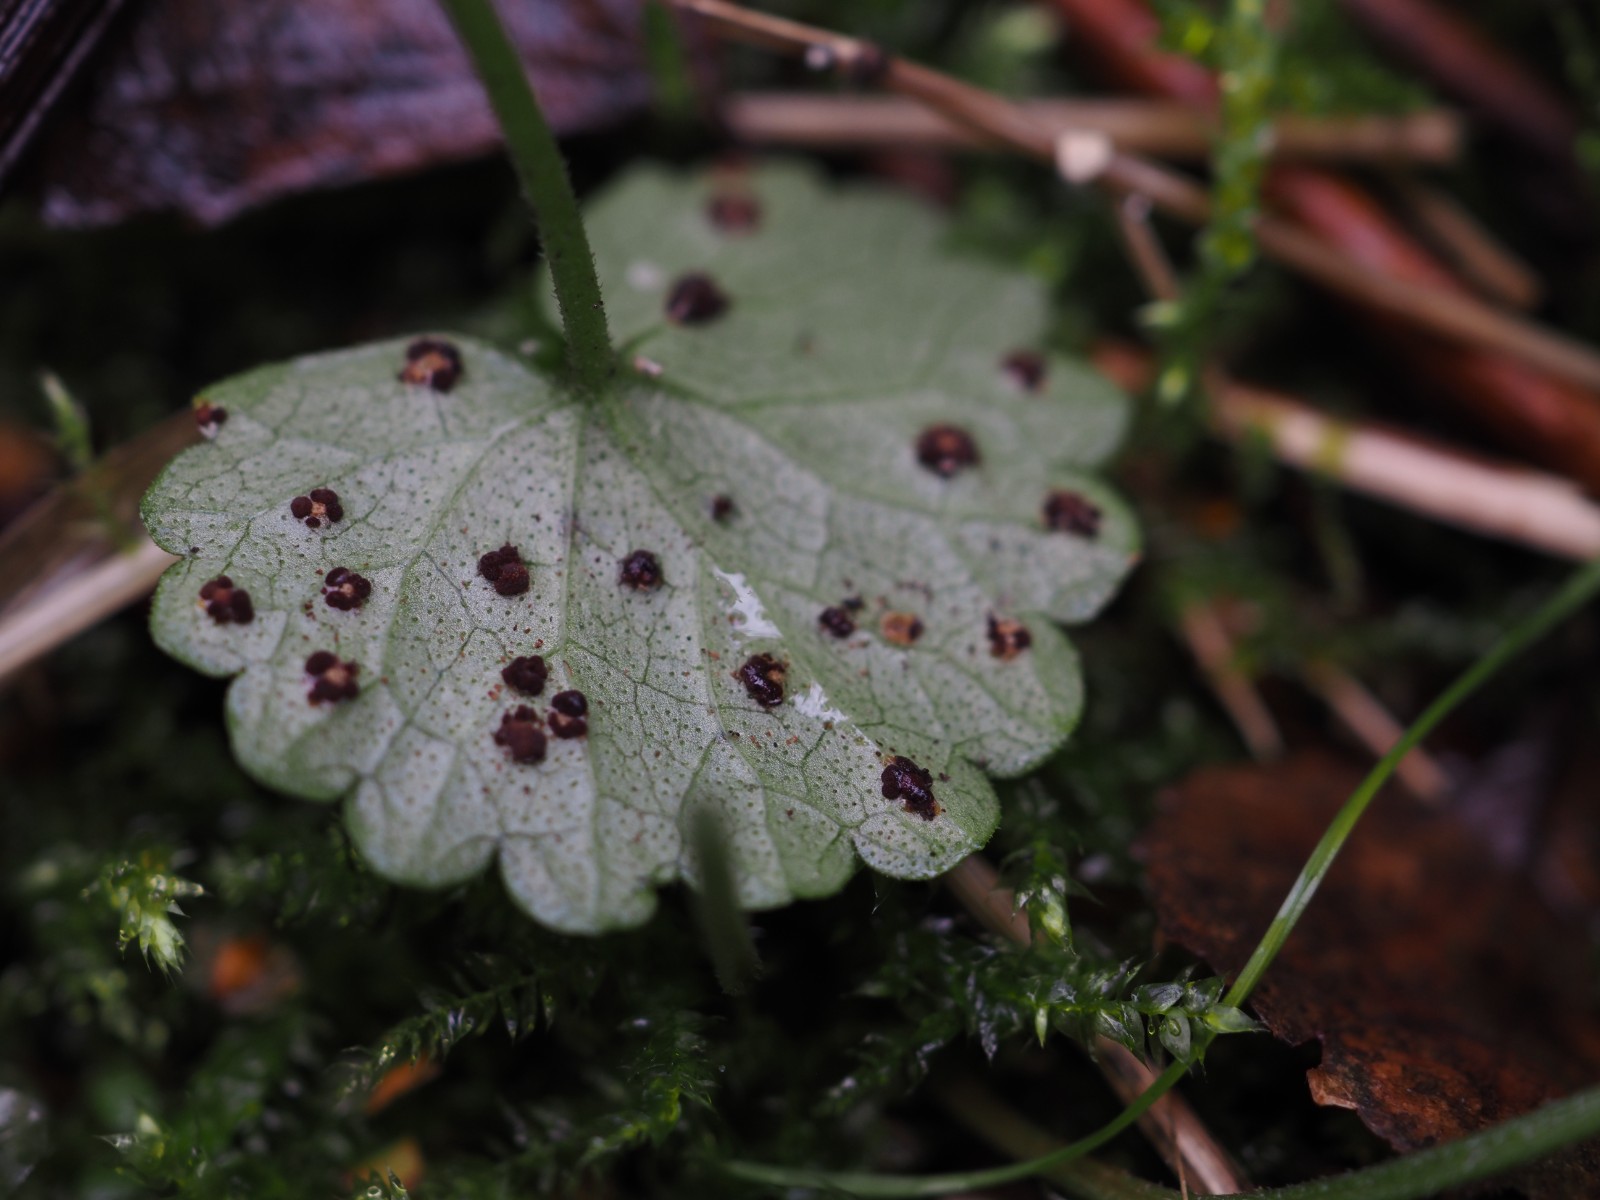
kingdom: Fungi
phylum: Basidiomycota
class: Pucciniomycetes
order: Pucciniales
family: Pucciniaceae
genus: Puccinia
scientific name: Puccinia glechomatis
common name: Ground ivy rust
